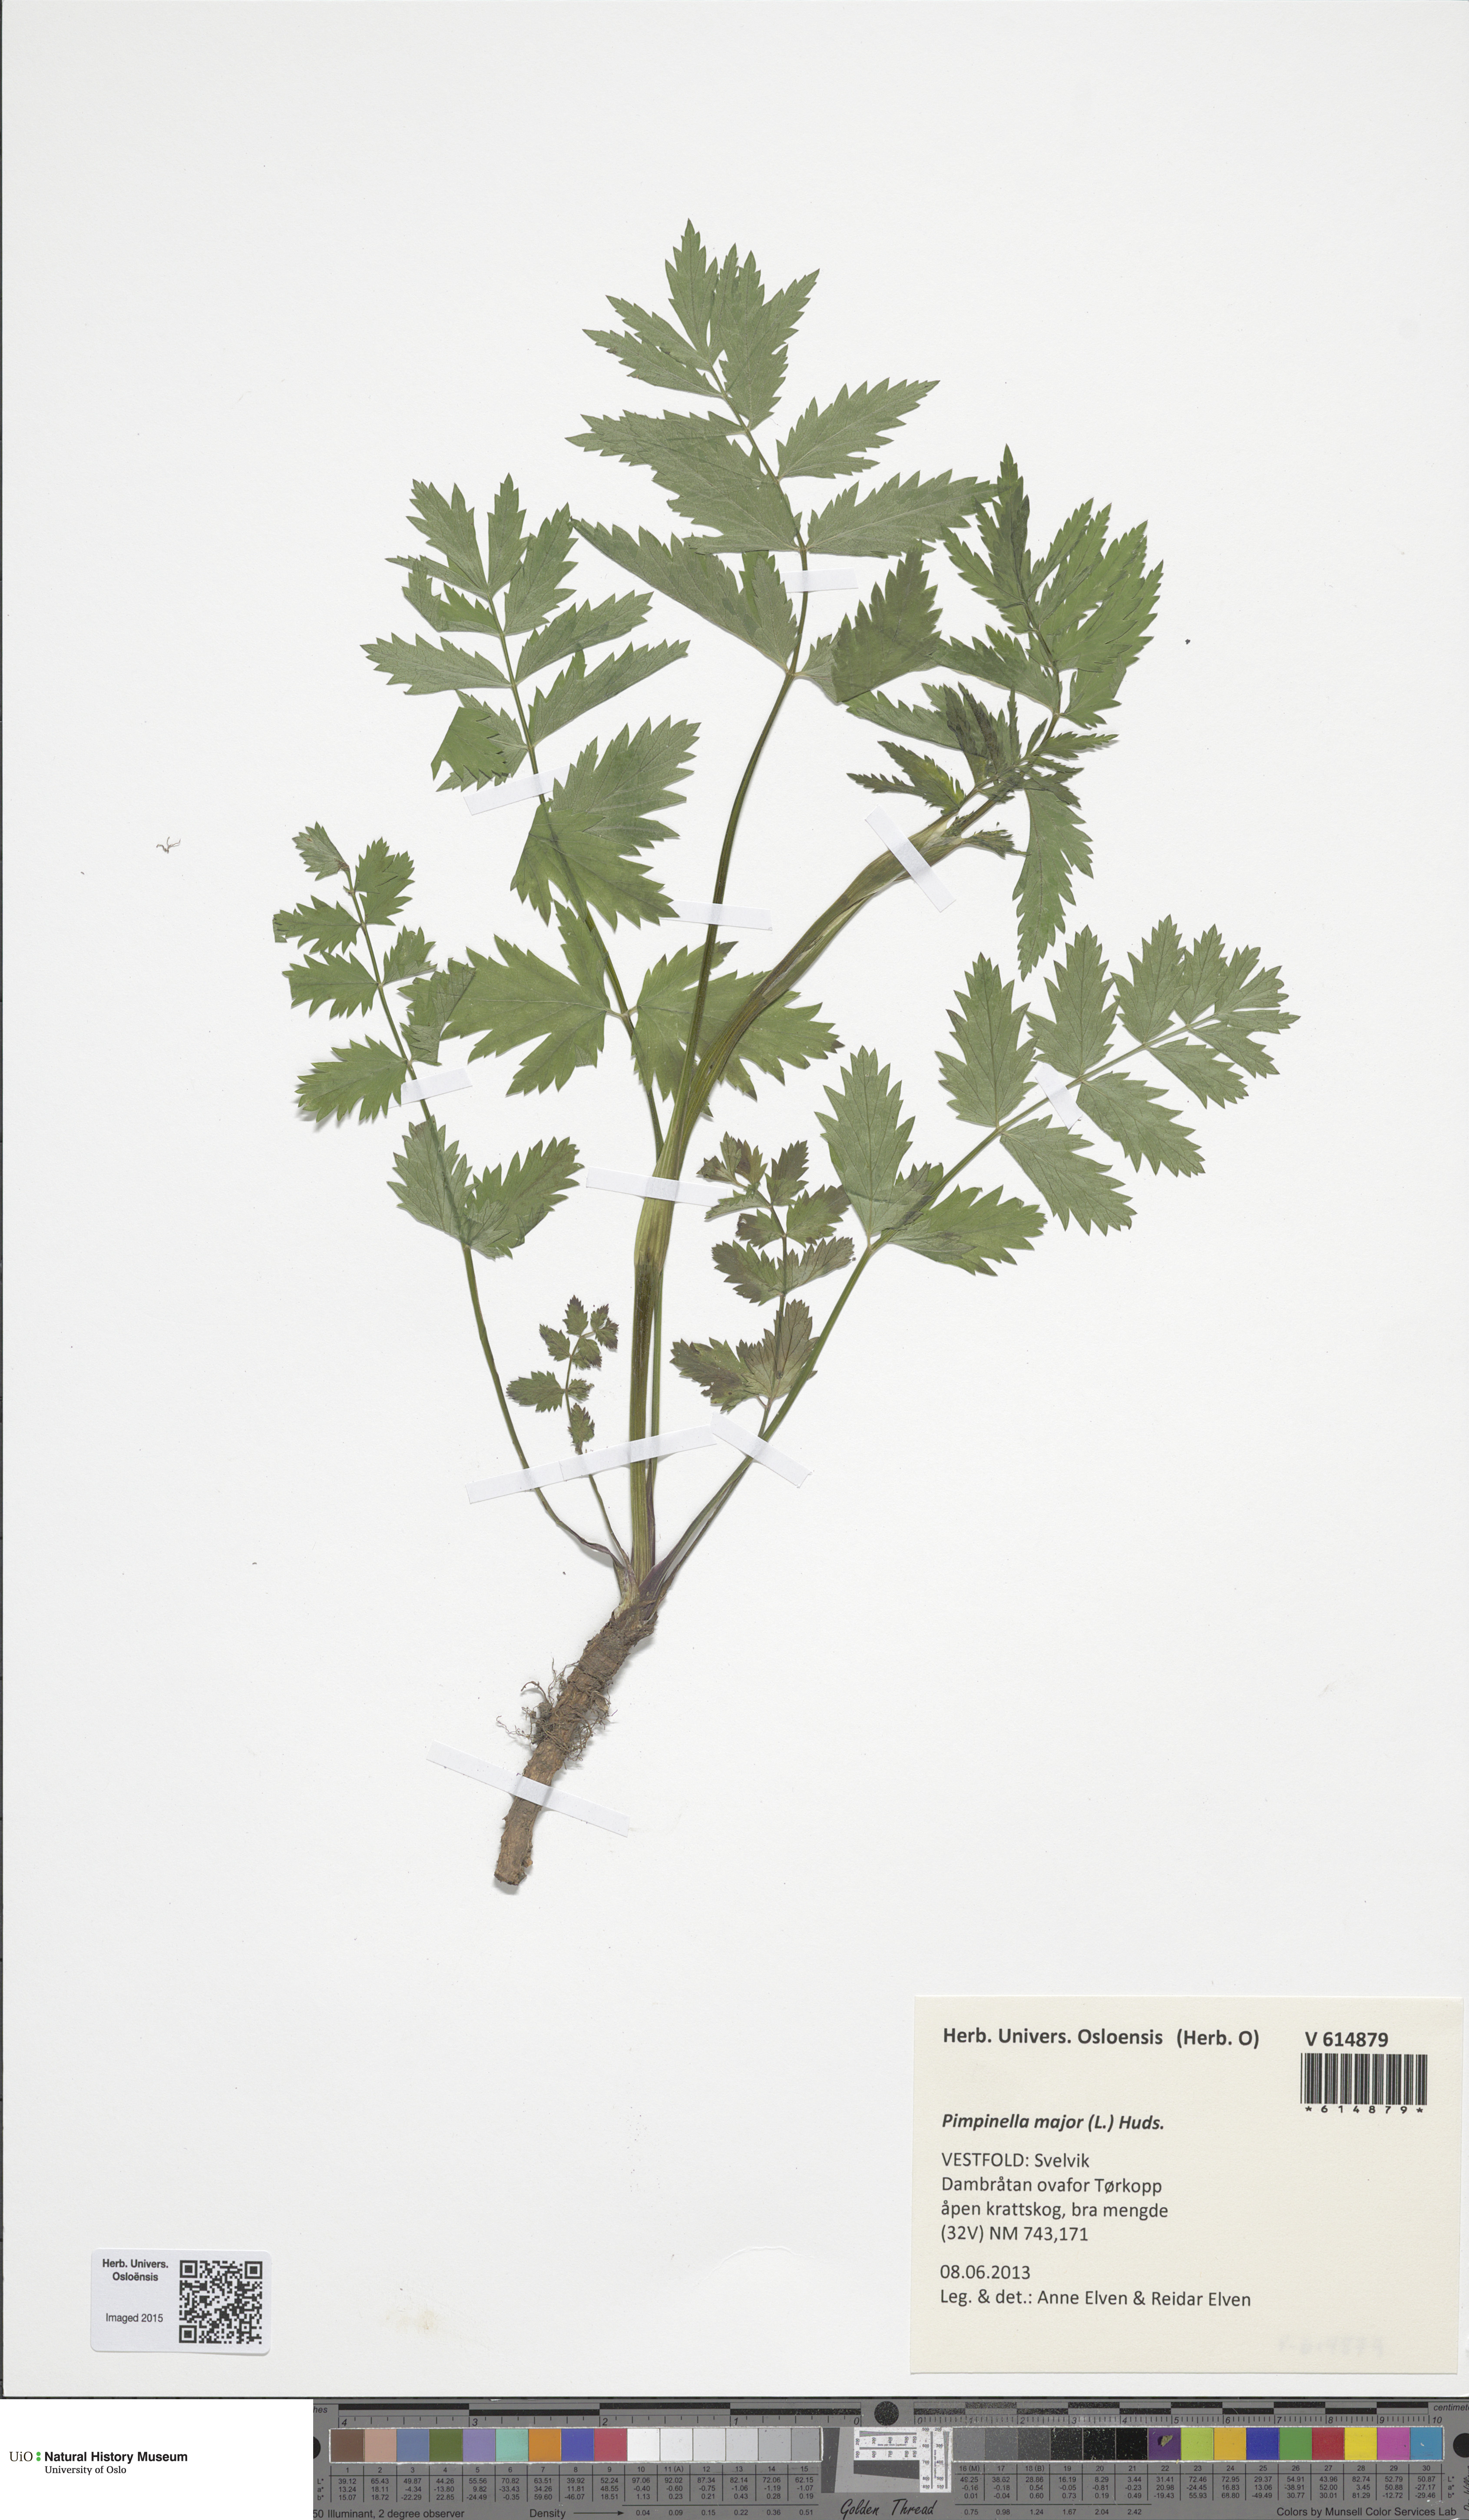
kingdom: Plantae
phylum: Tracheophyta
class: Magnoliopsida
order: Apiales
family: Apiaceae
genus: Pimpinella
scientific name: Pimpinella major
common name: Greater burnet-saxifrage
